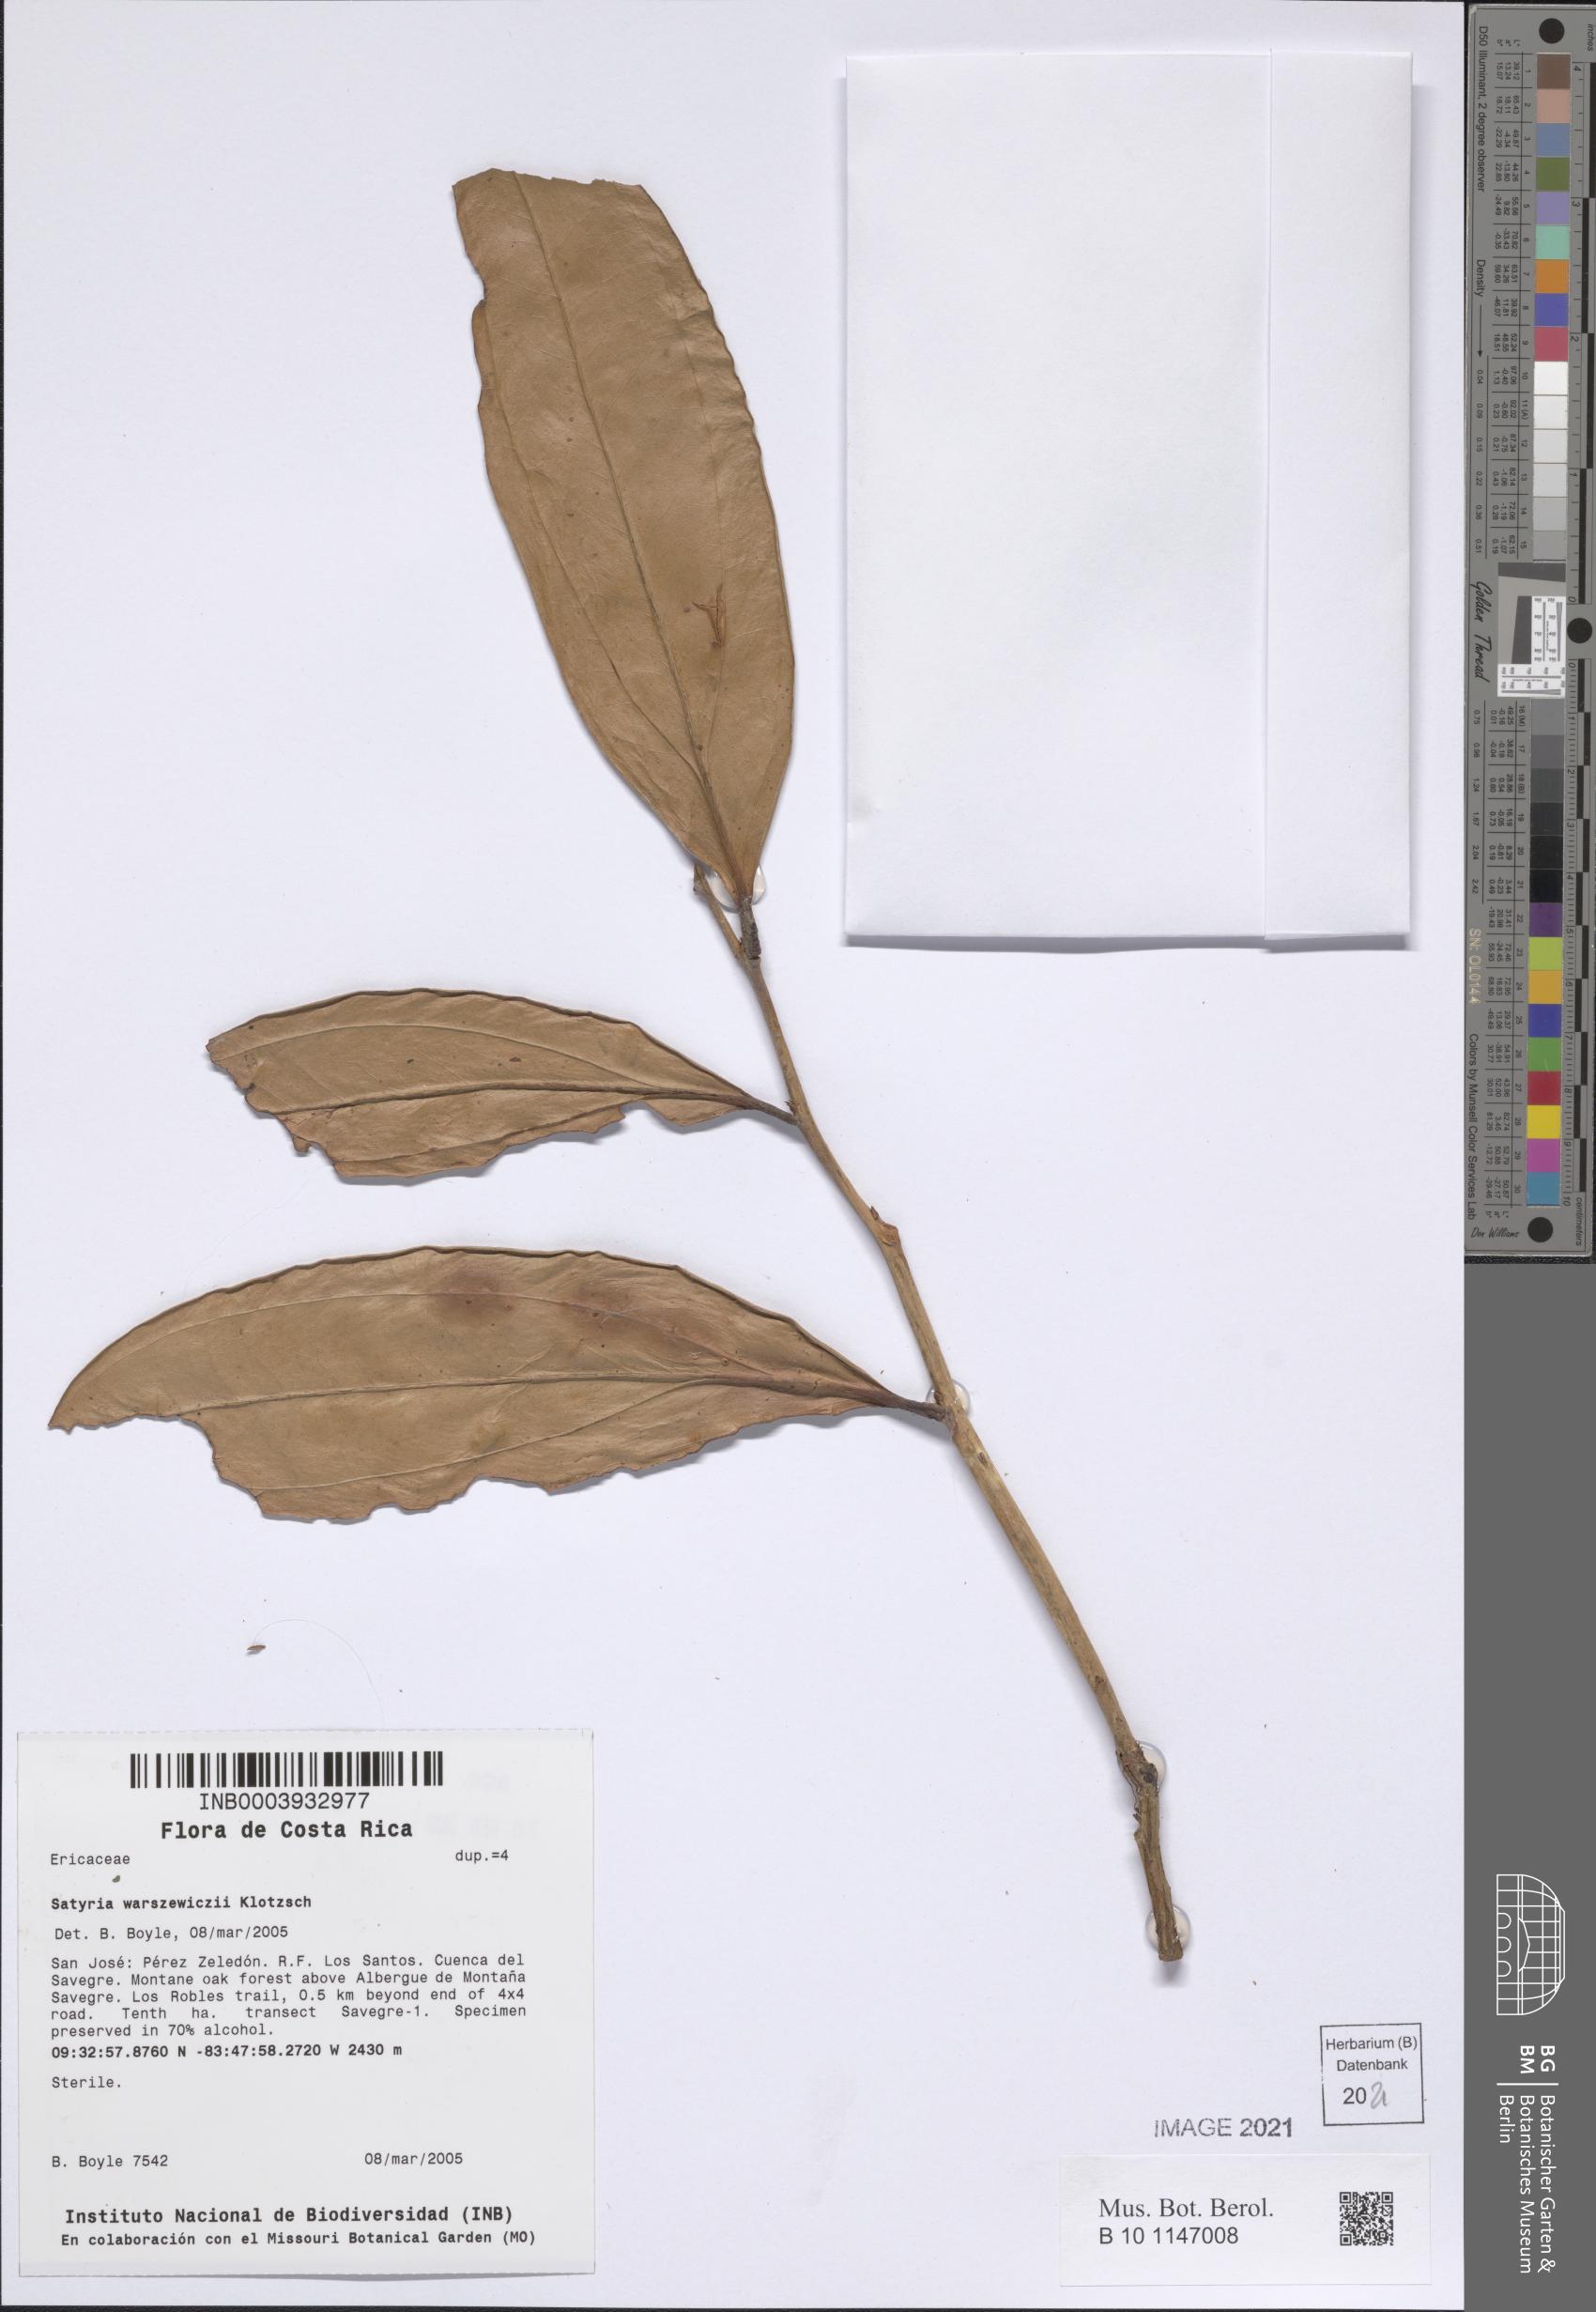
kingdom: Plantae
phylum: Tracheophyta
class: Magnoliopsida
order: Ericales
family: Ericaceae
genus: Satyria
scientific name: Satyria warszewiczii
